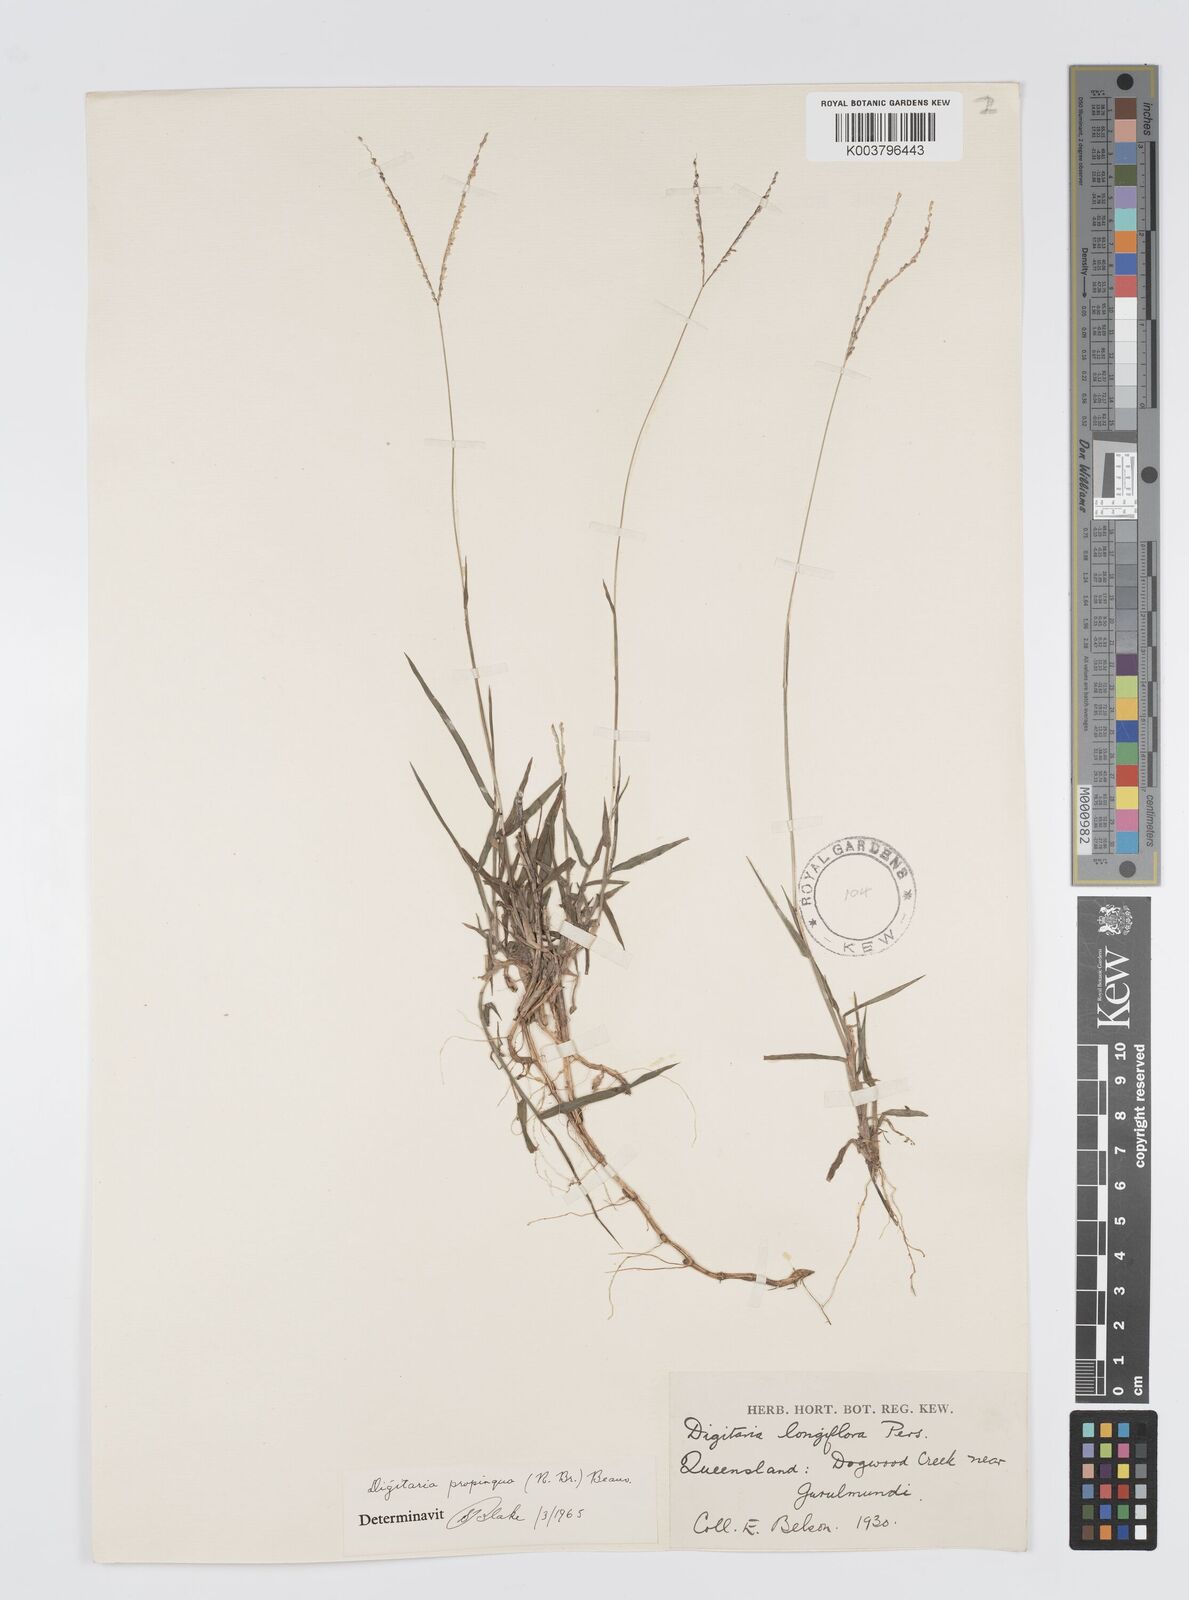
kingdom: Plantae
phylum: Tracheophyta
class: Liliopsida
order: Poales
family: Poaceae
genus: Digitaria
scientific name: Digitaria longiflora
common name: Wire crabgrass
